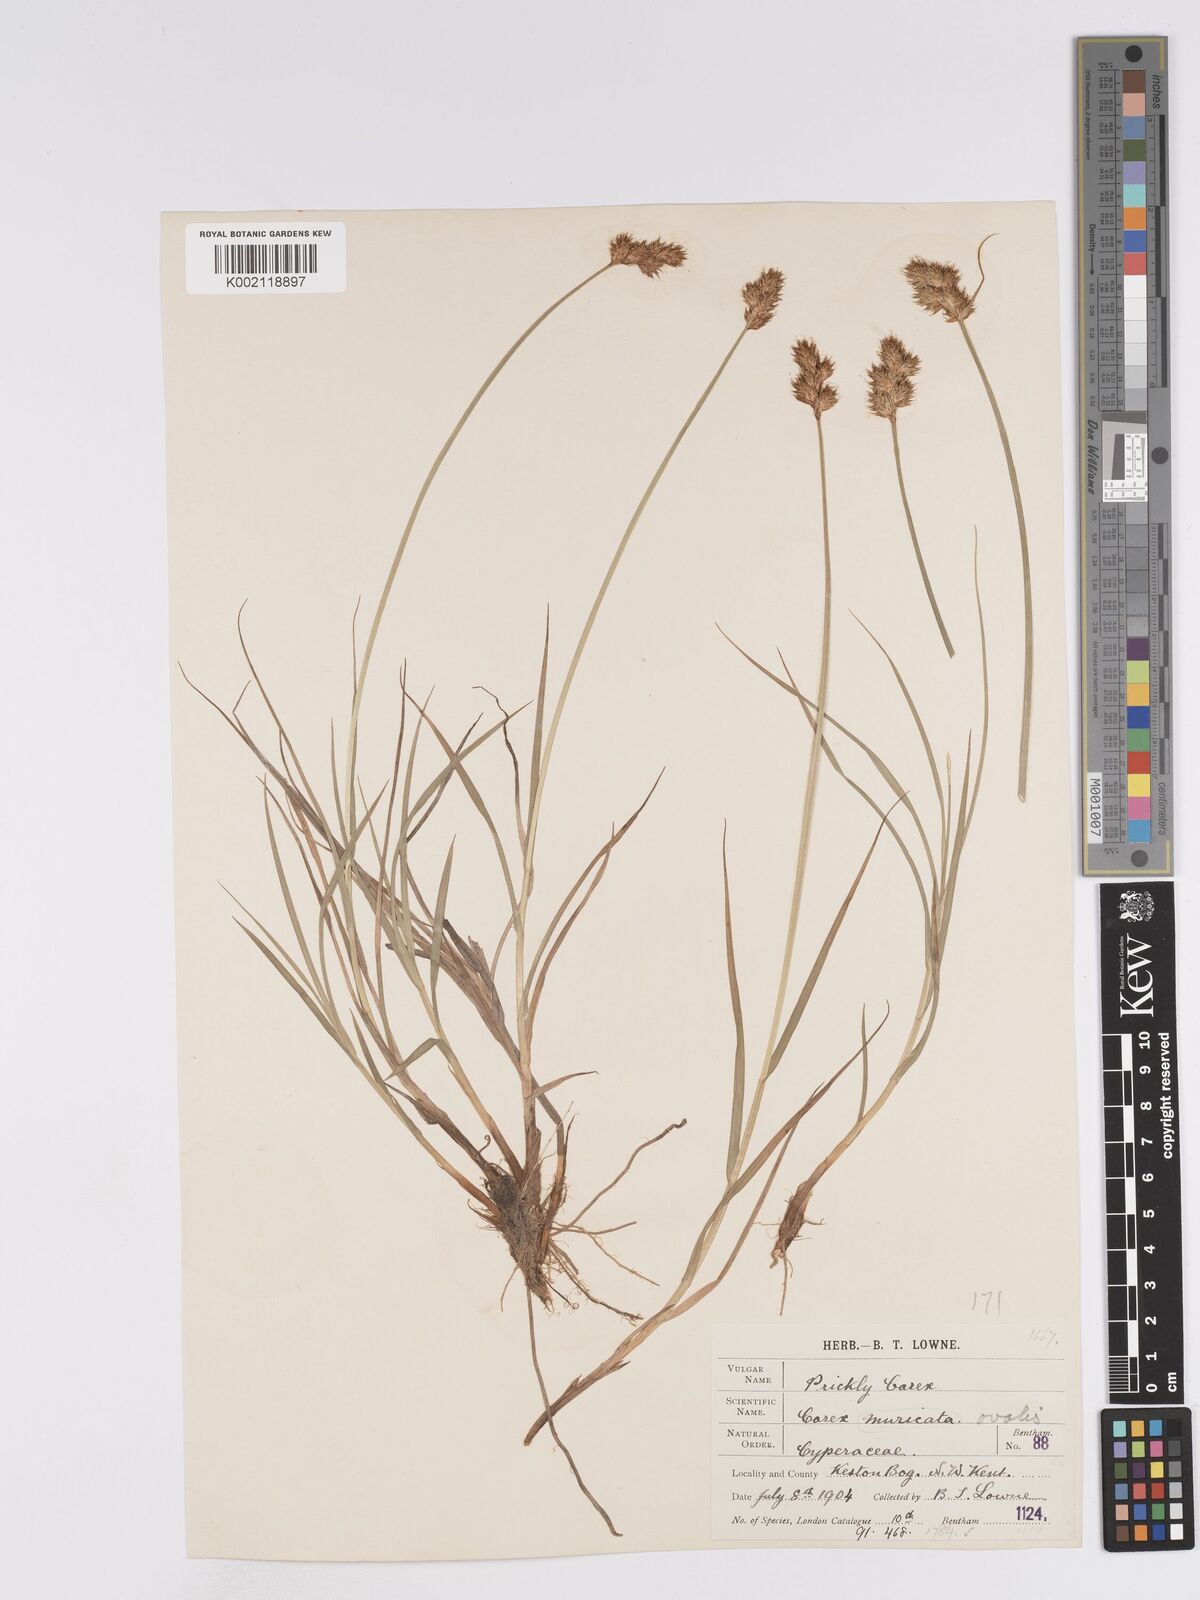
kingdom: Plantae
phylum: Tracheophyta
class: Liliopsida
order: Poales
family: Cyperaceae
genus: Carex
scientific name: Carex leporina
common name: Oval sedge
